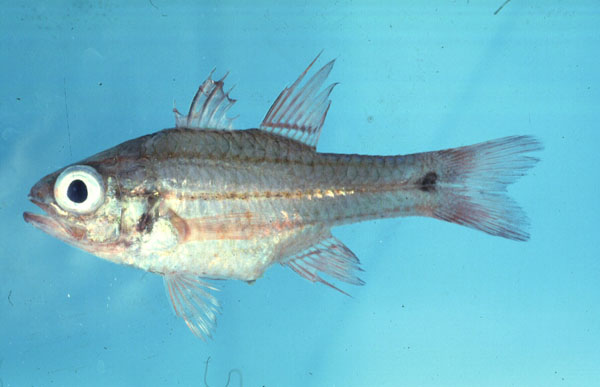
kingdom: Animalia
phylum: Chordata
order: Perciformes
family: Apogonidae
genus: Ostorhinchus
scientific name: Ostorhinchus doederleini
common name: Doederlein's cardinalfish
